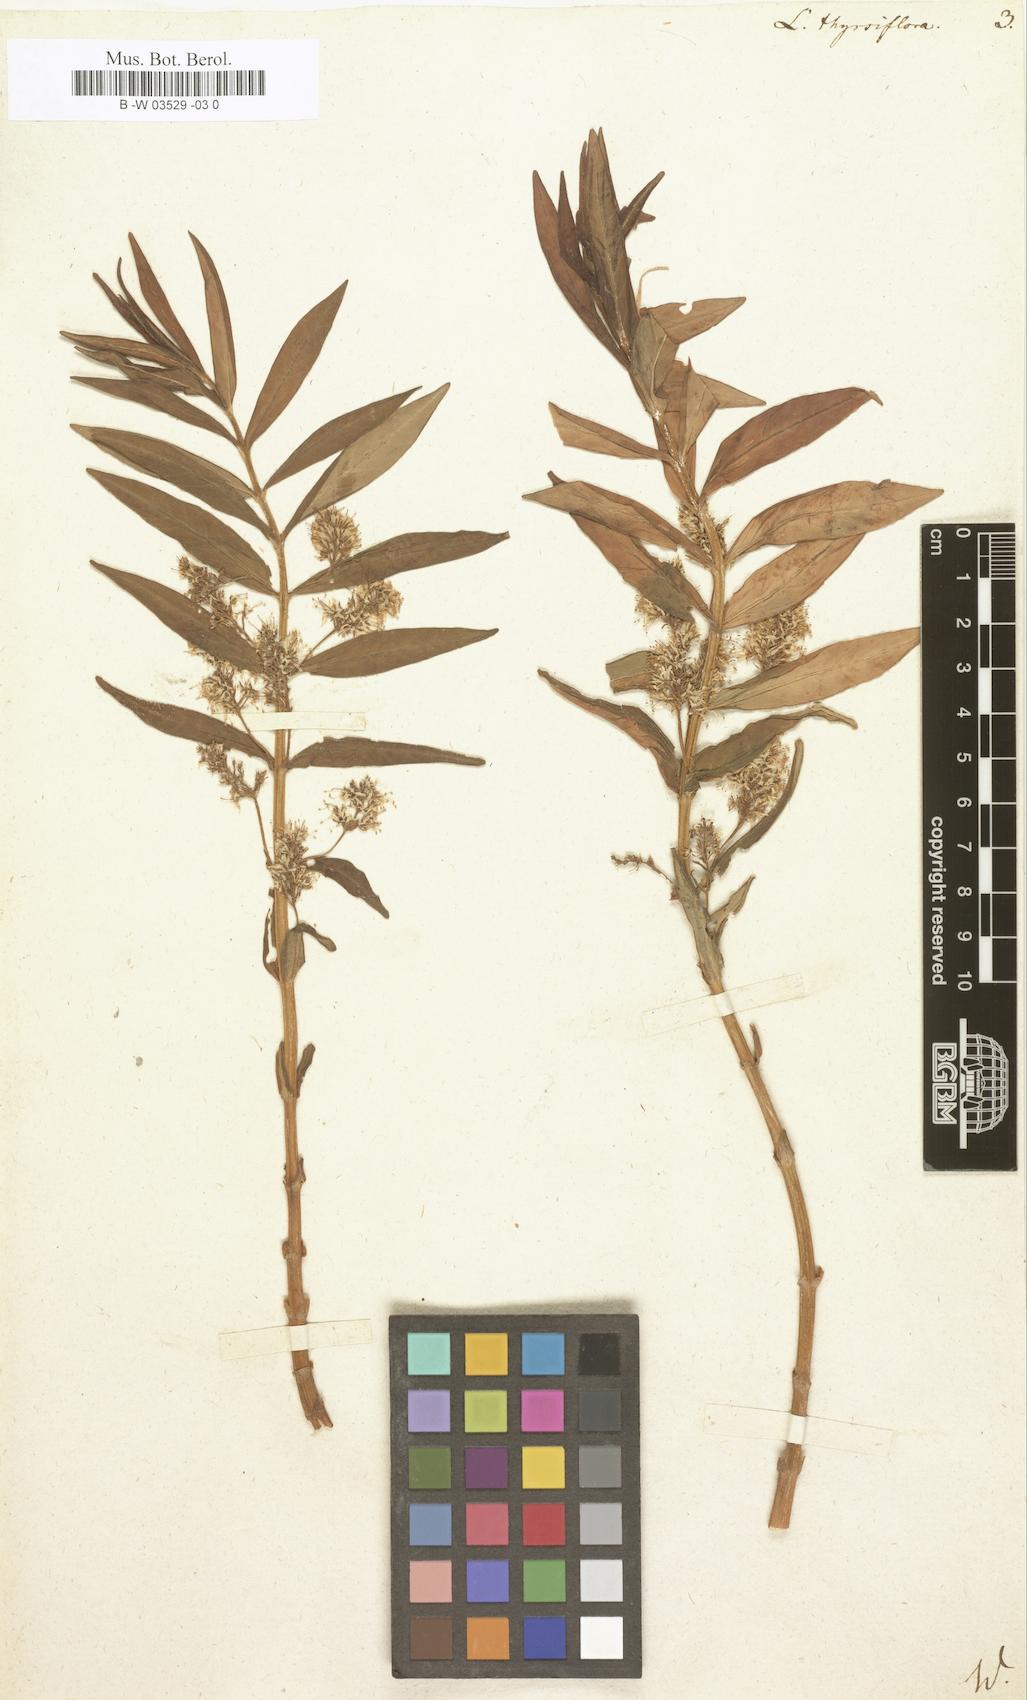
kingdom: Plantae
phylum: Tracheophyta
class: Magnoliopsida
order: Ericales
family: Primulaceae
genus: Lysimachia
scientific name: Lysimachia thyrsiflora
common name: Tufted loosestrife
